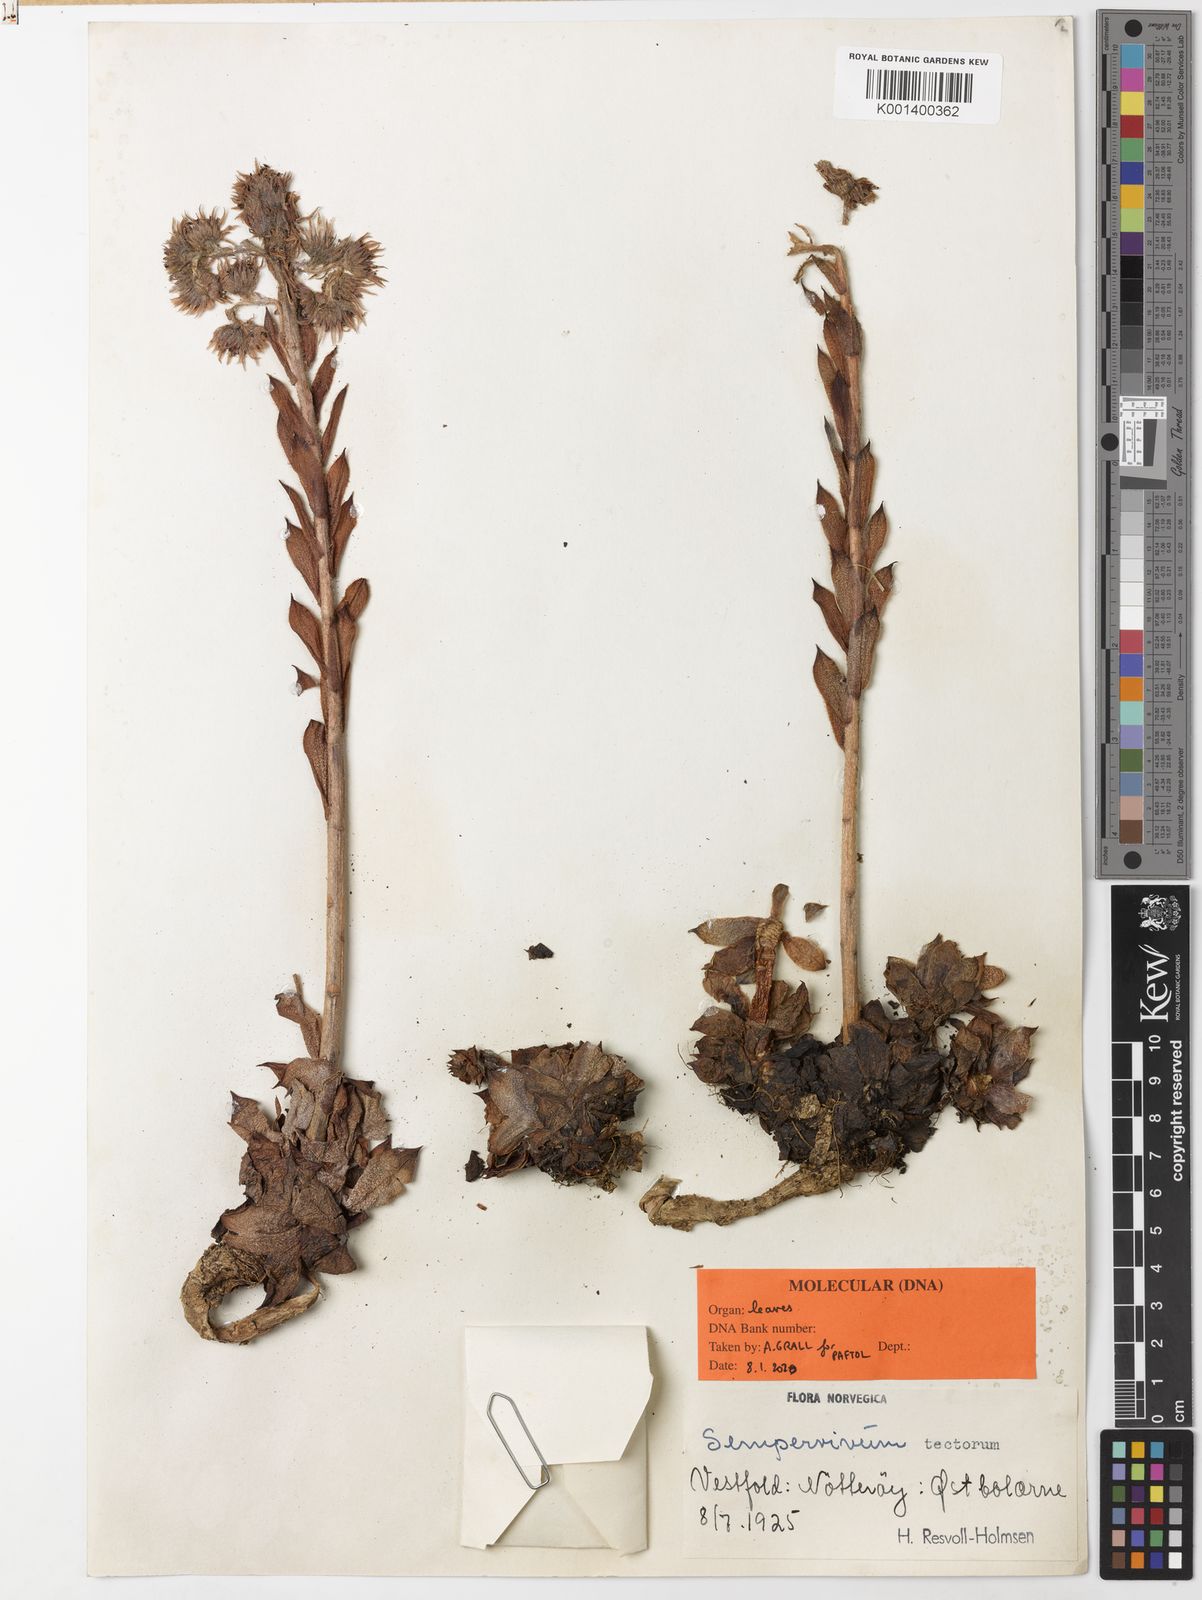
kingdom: Plantae
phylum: Tracheophyta
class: Magnoliopsida
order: Saxifragales
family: Crassulaceae
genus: Sempervivum
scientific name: Sempervivum tectorum
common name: House-leek
